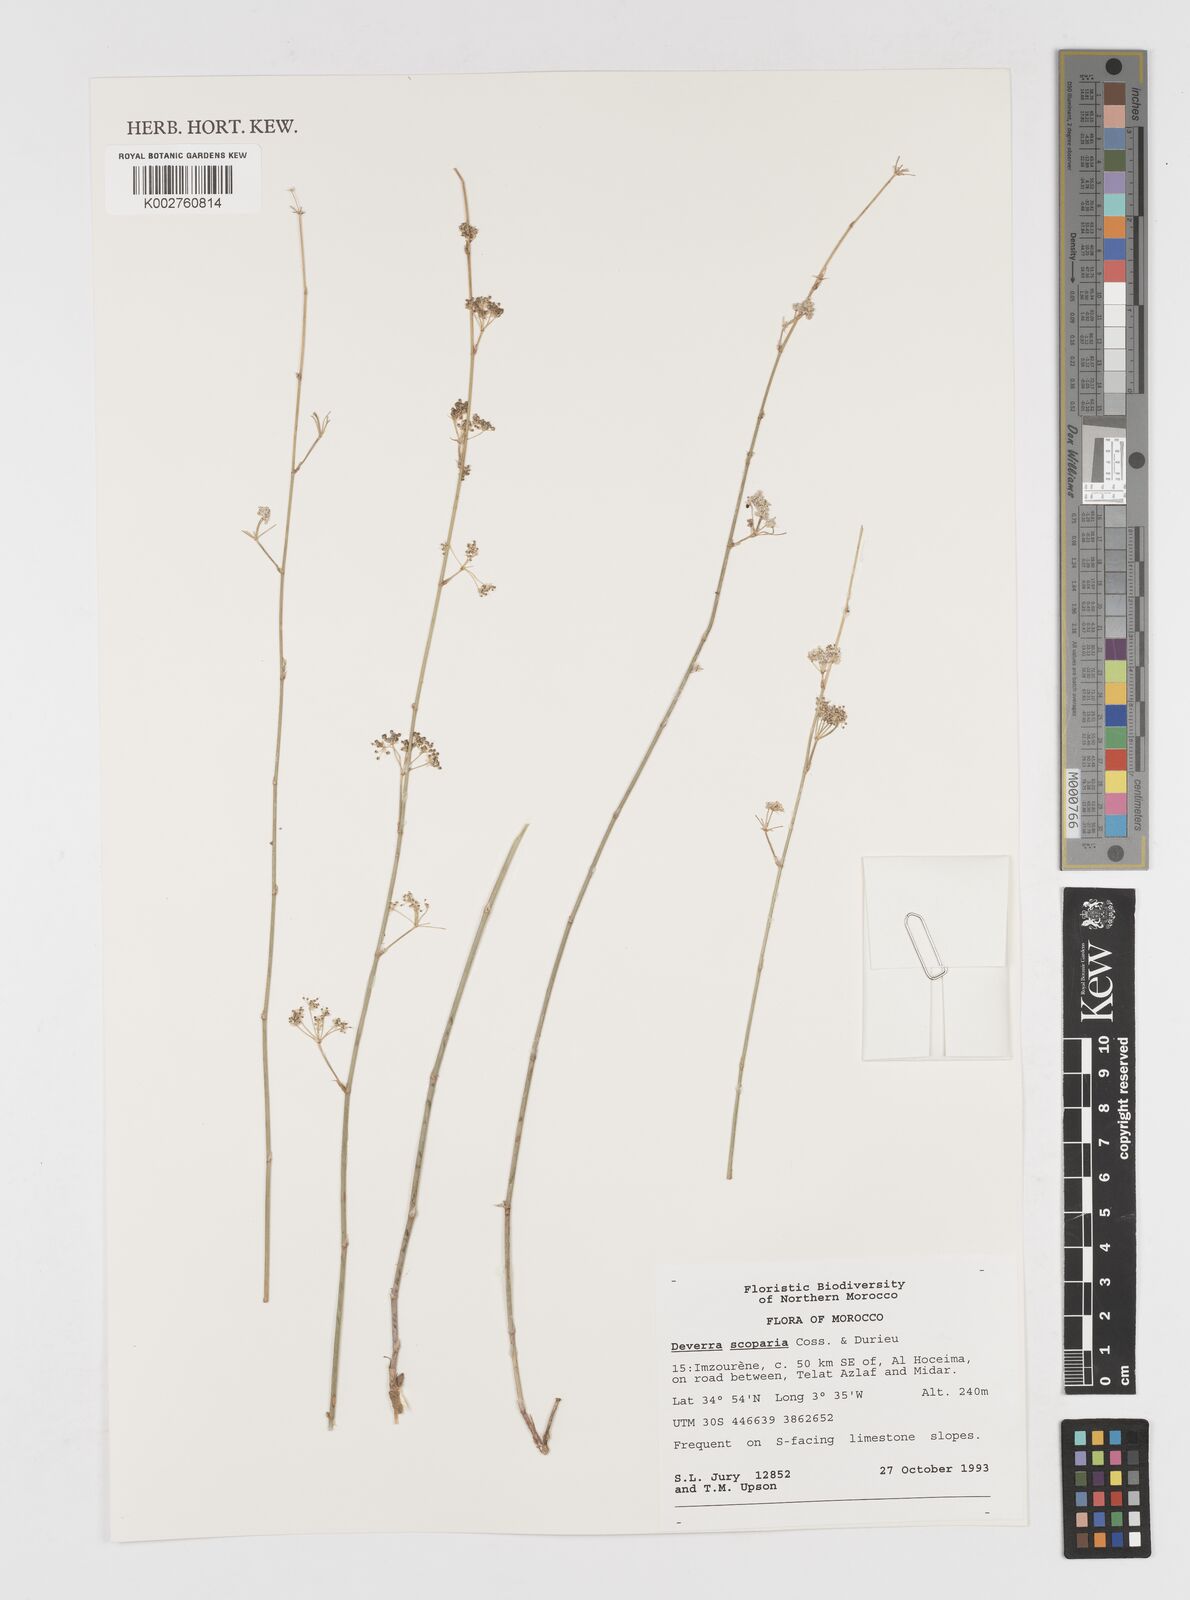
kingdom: Plantae
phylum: Tracheophyta
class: Magnoliopsida
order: Apiales
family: Apiaceae
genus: Deverra
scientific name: Deverra scoparia
